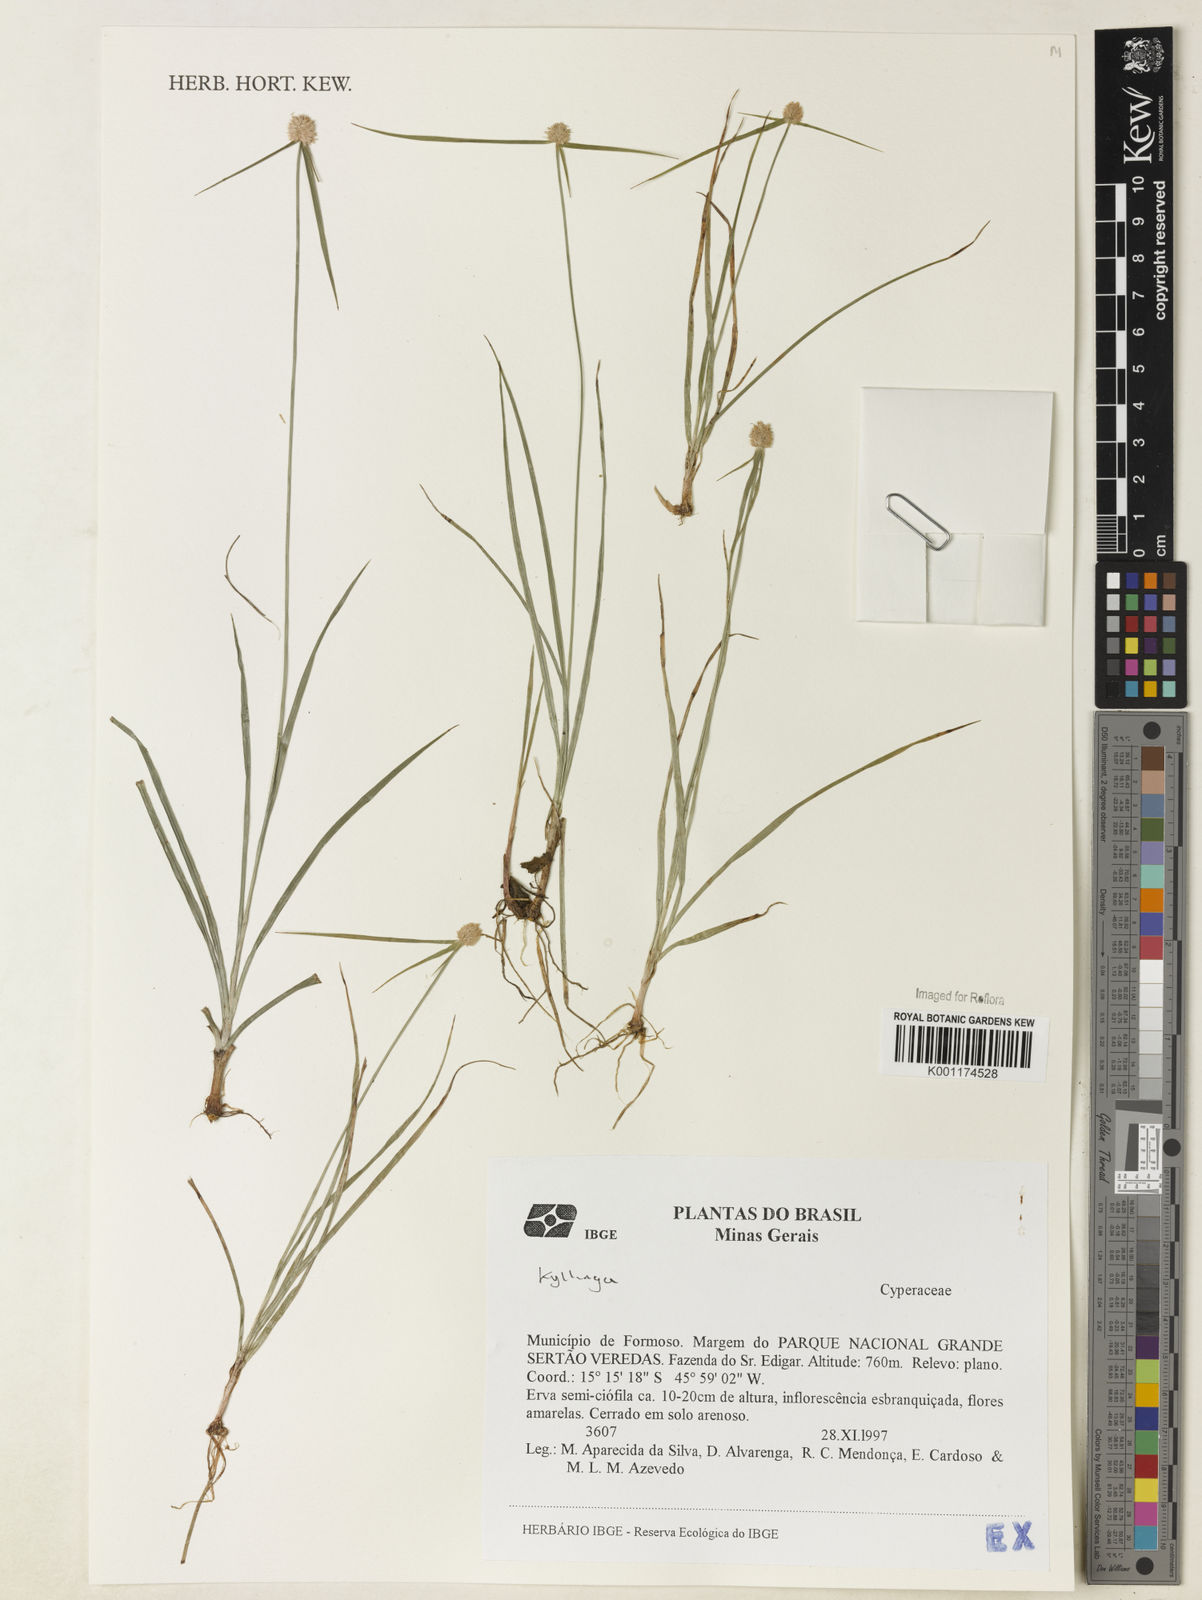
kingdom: Plantae
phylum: Tracheophyta
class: Liliopsida
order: Poales
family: Cyperaceae
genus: Cyperus
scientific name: Cyperus
